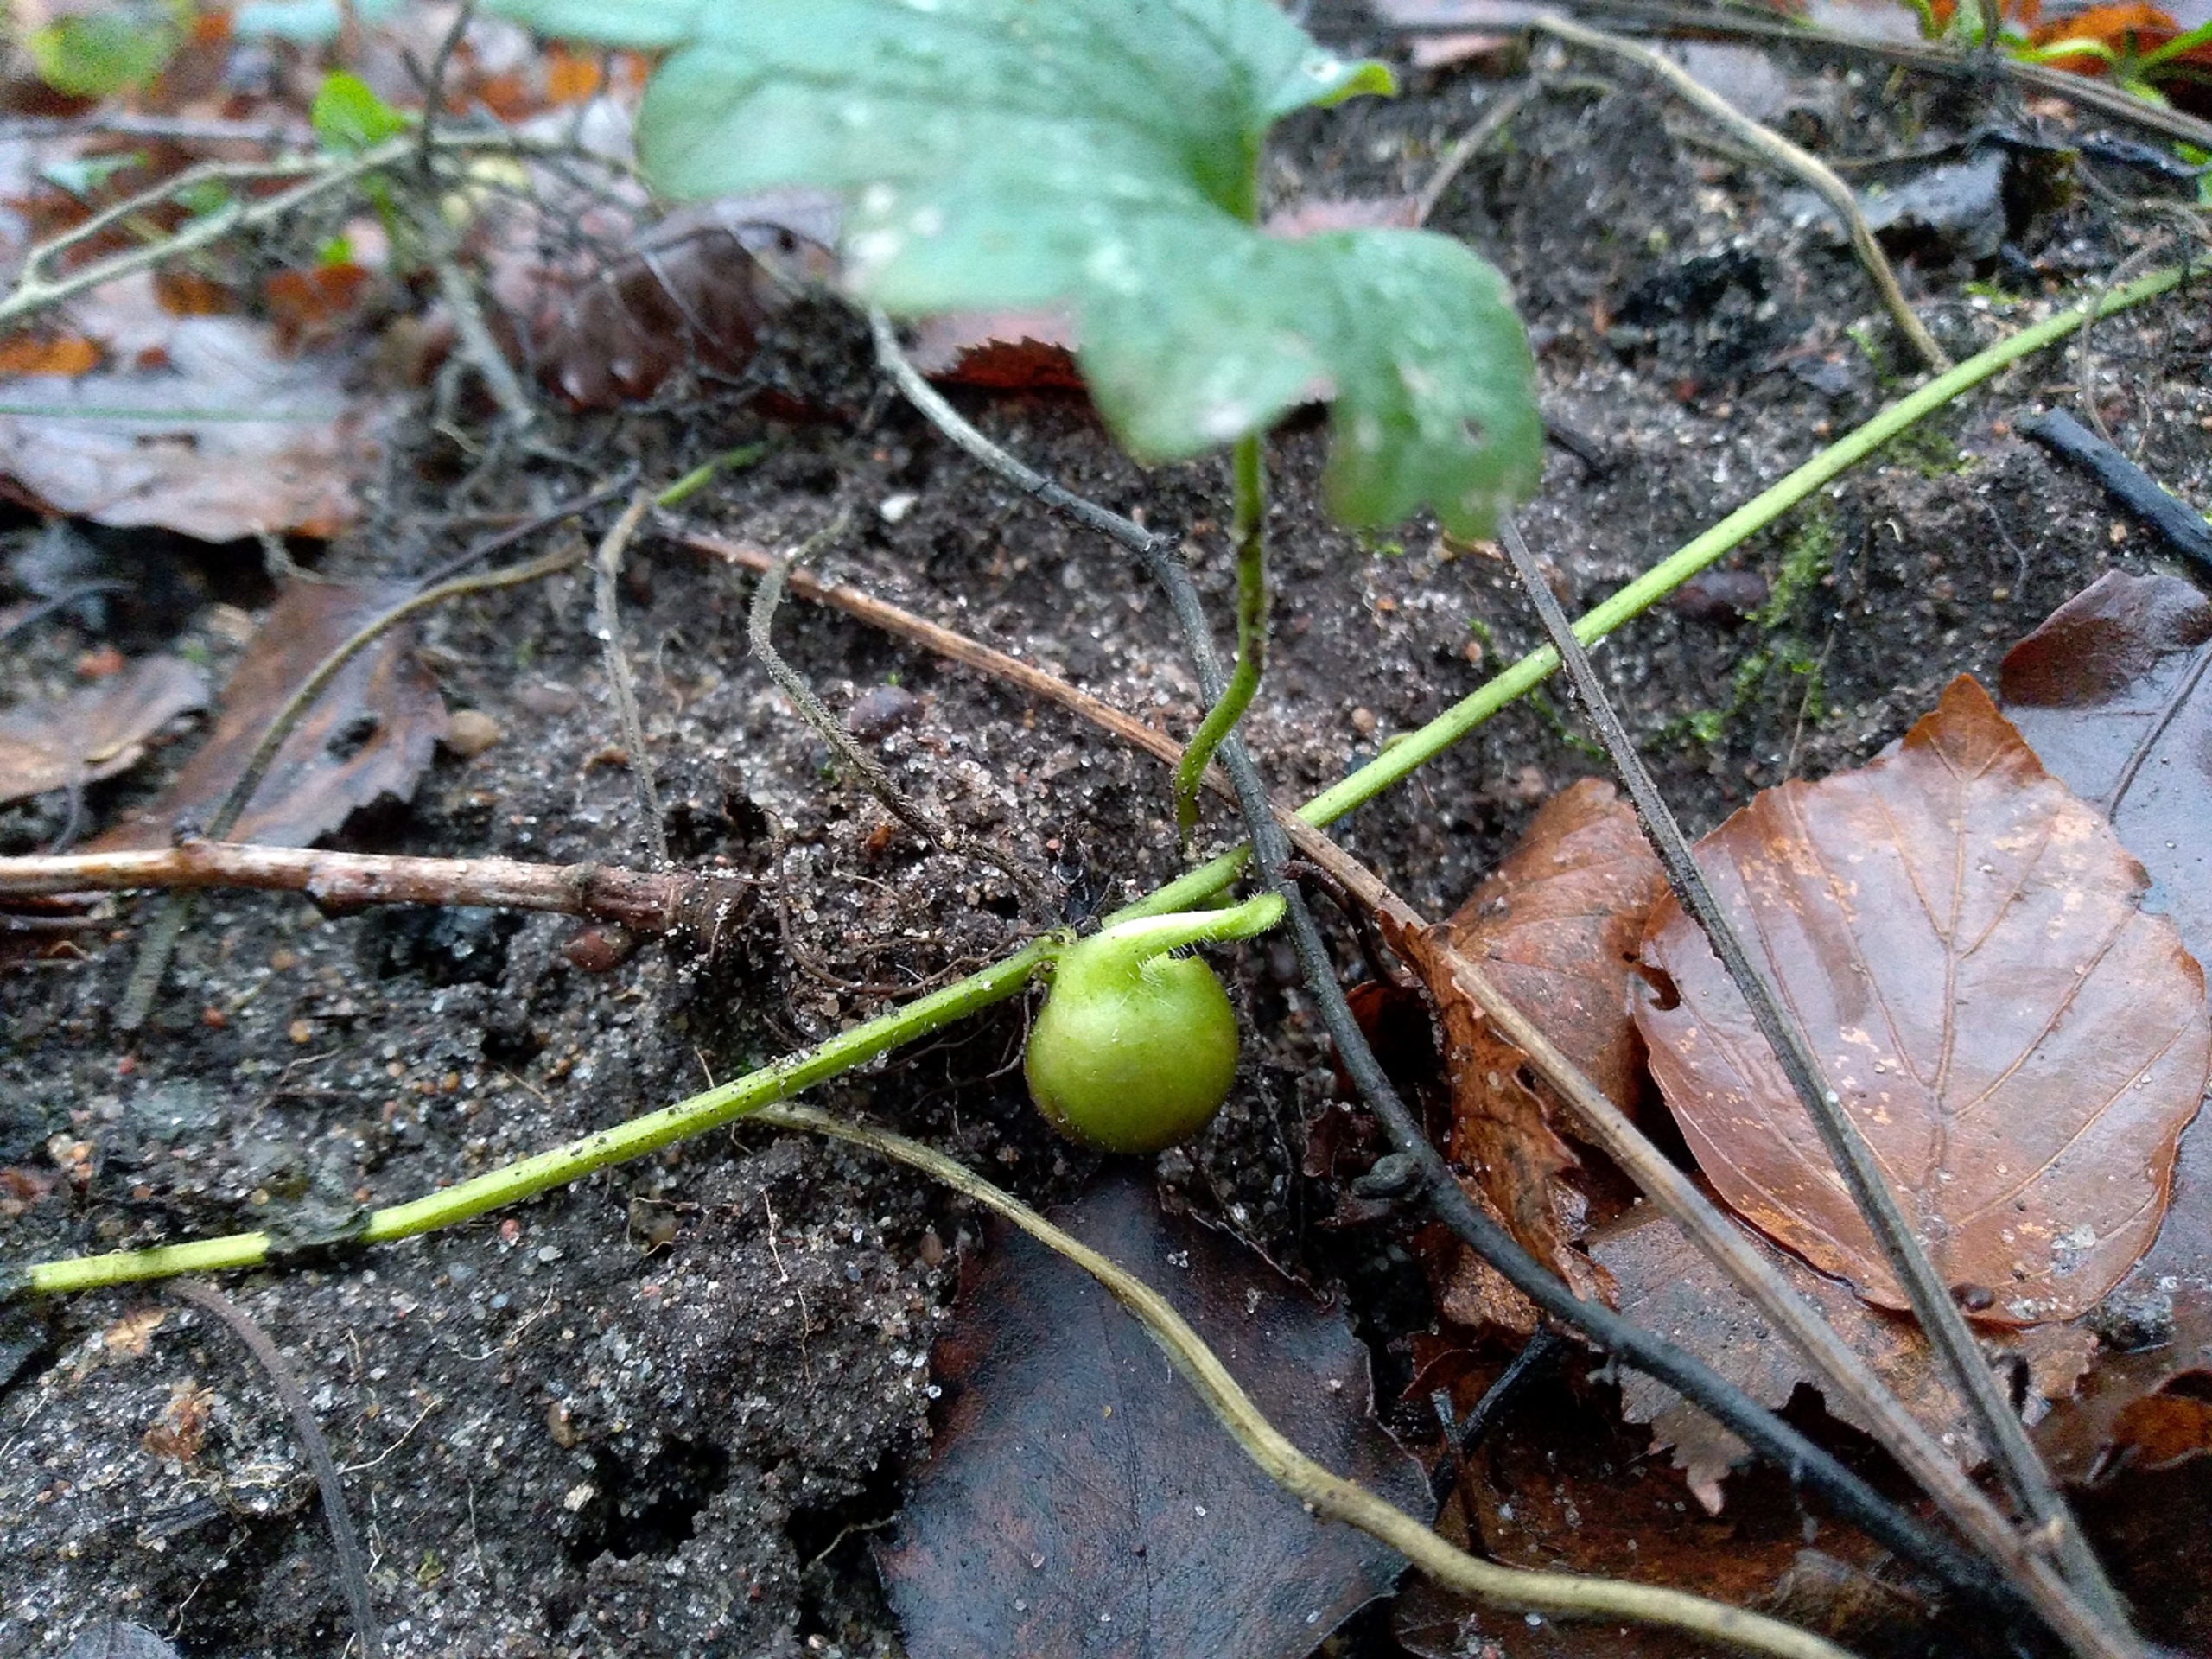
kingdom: Animalia
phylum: Arthropoda
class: Insecta
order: Hymenoptera
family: Cynipidae
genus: Liposthenes
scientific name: Liposthenes glechomae
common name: Korsknapgalhveps
